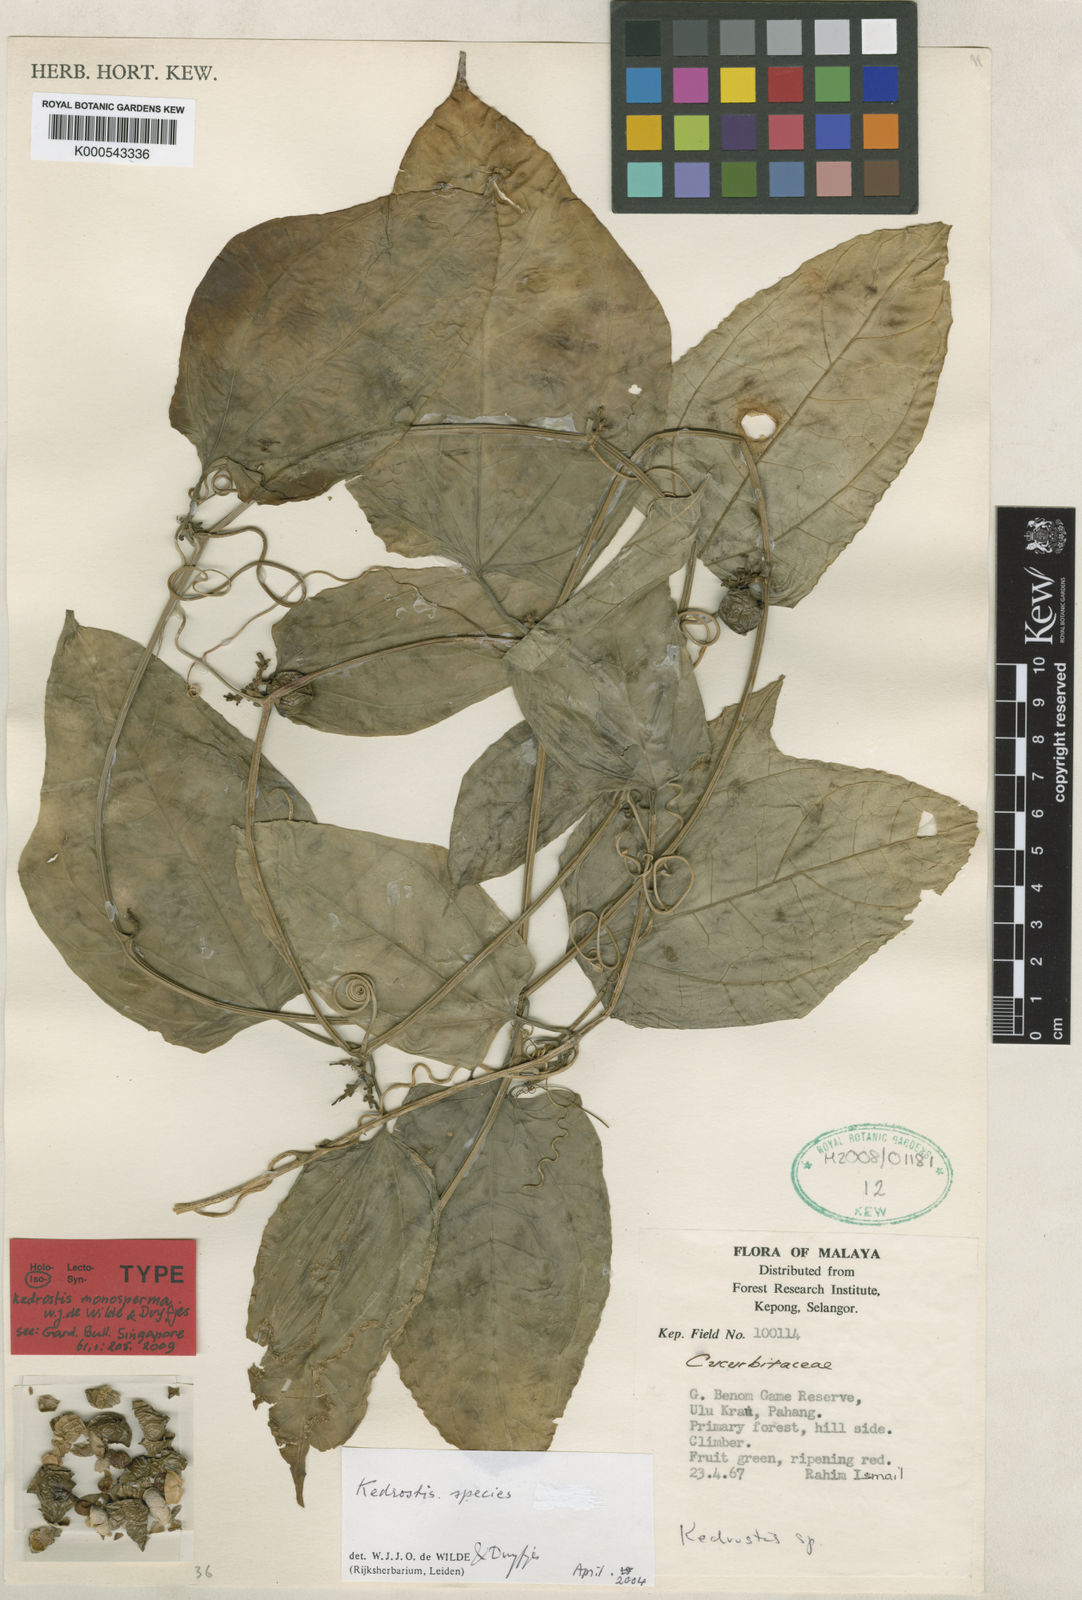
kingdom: Plantae
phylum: Tracheophyta
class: Magnoliopsida
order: Cucurbitales
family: Cucurbitaceae
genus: Kedrostis
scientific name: Kedrostis monosperma
